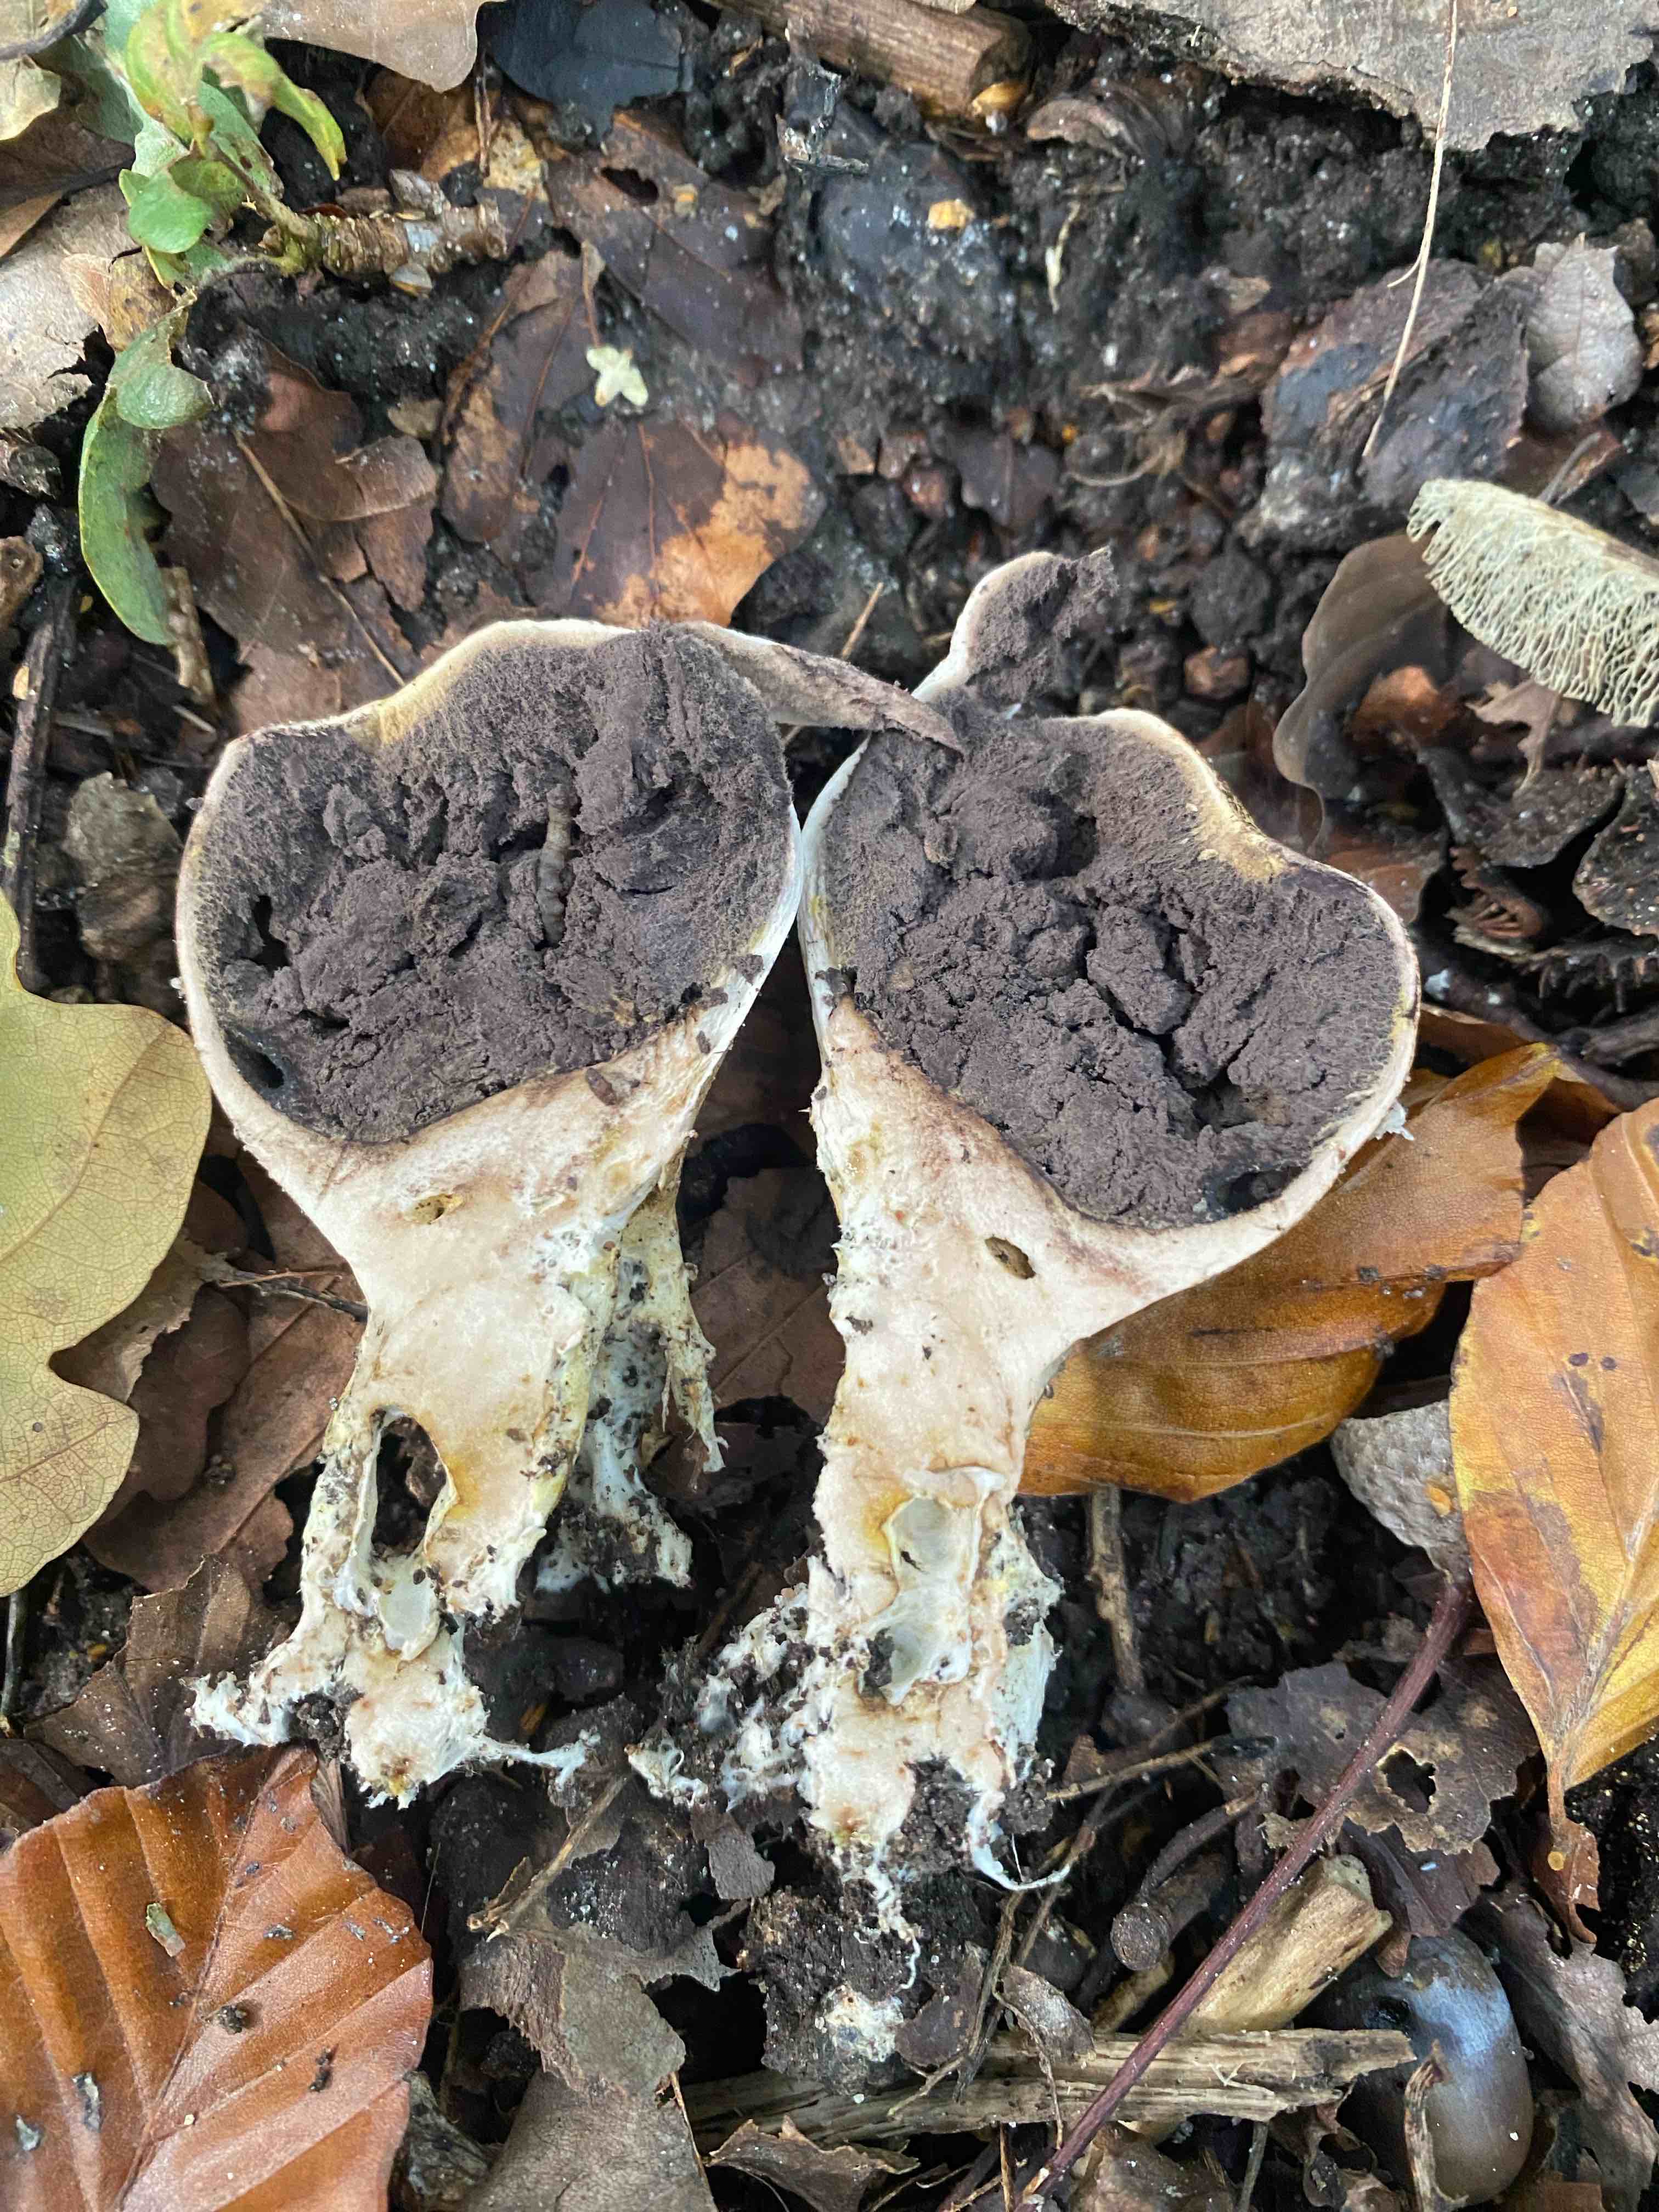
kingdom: Fungi
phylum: Basidiomycota
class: Agaricomycetes
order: Boletales
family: Sclerodermataceae
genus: Scleroderma
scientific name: Scleroderma verrucosum
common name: stilket bruskbold
